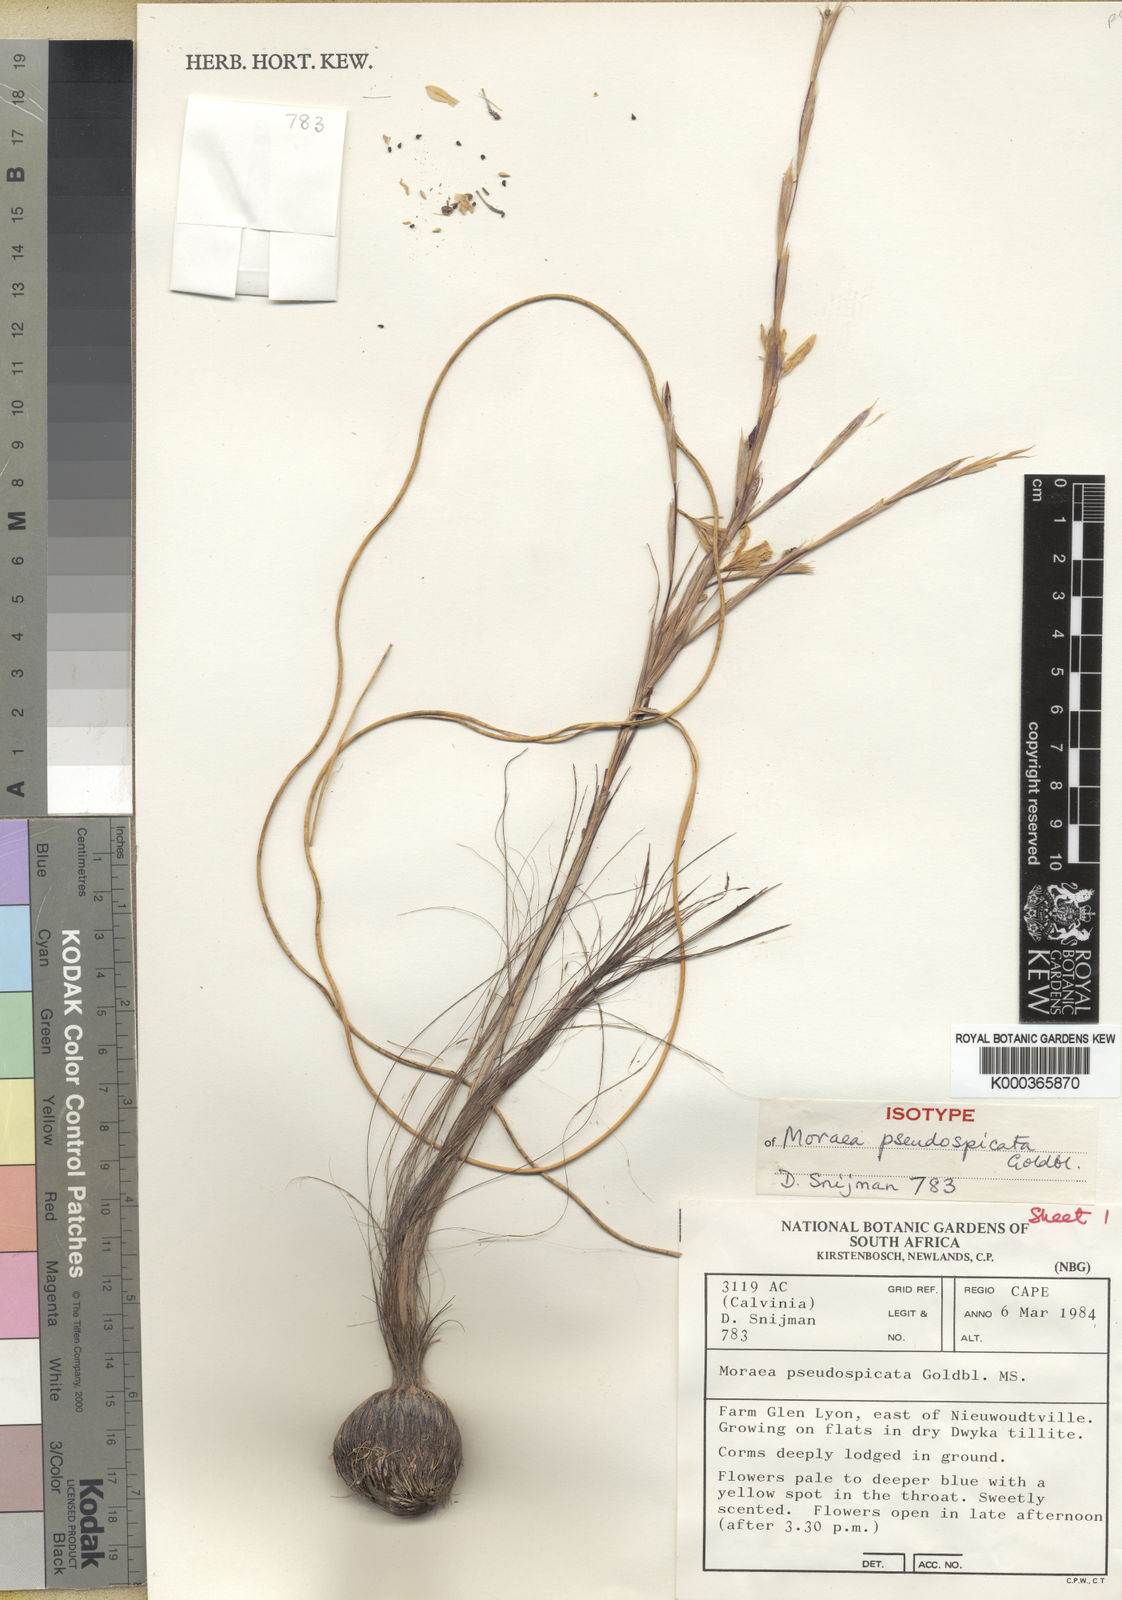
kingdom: Plantae
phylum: Tracheophyta
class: Liliopsida
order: Asparagales
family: Iridaceae
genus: Moraea
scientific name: Moraea pseudospicata
